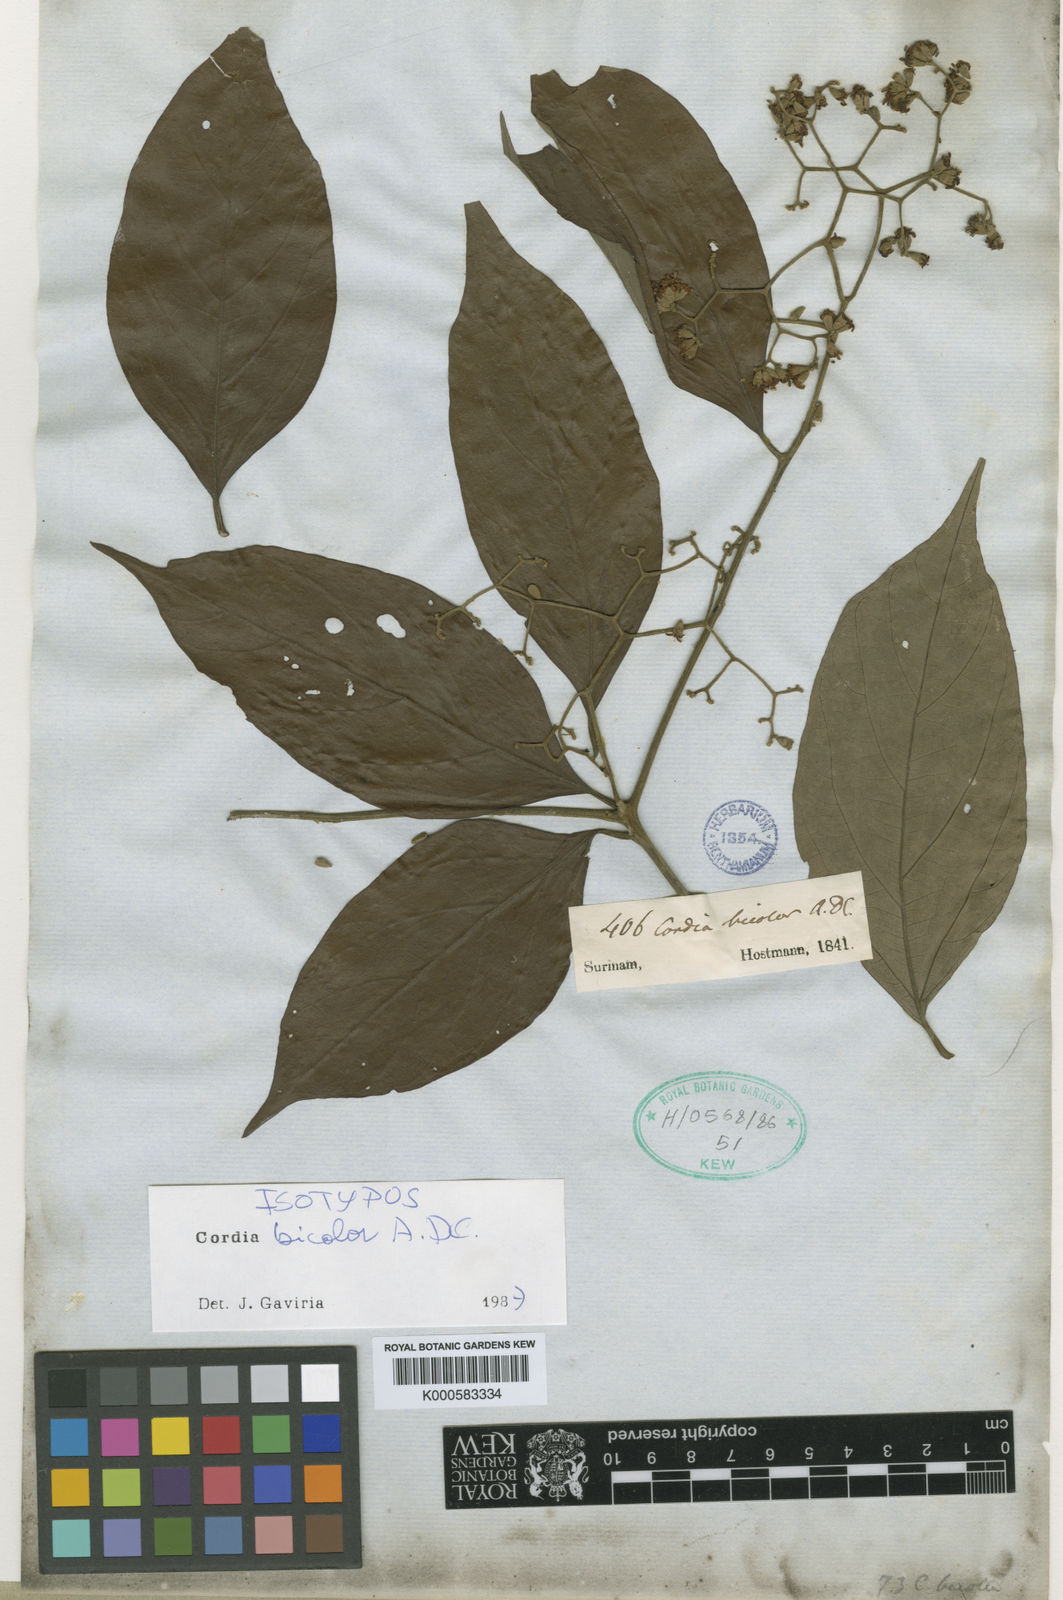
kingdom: Plantae
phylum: Tracheophyta
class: Magnoliopsida
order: Boraginales
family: Cordiaceae
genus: Cordia
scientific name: Cordia bicolor
